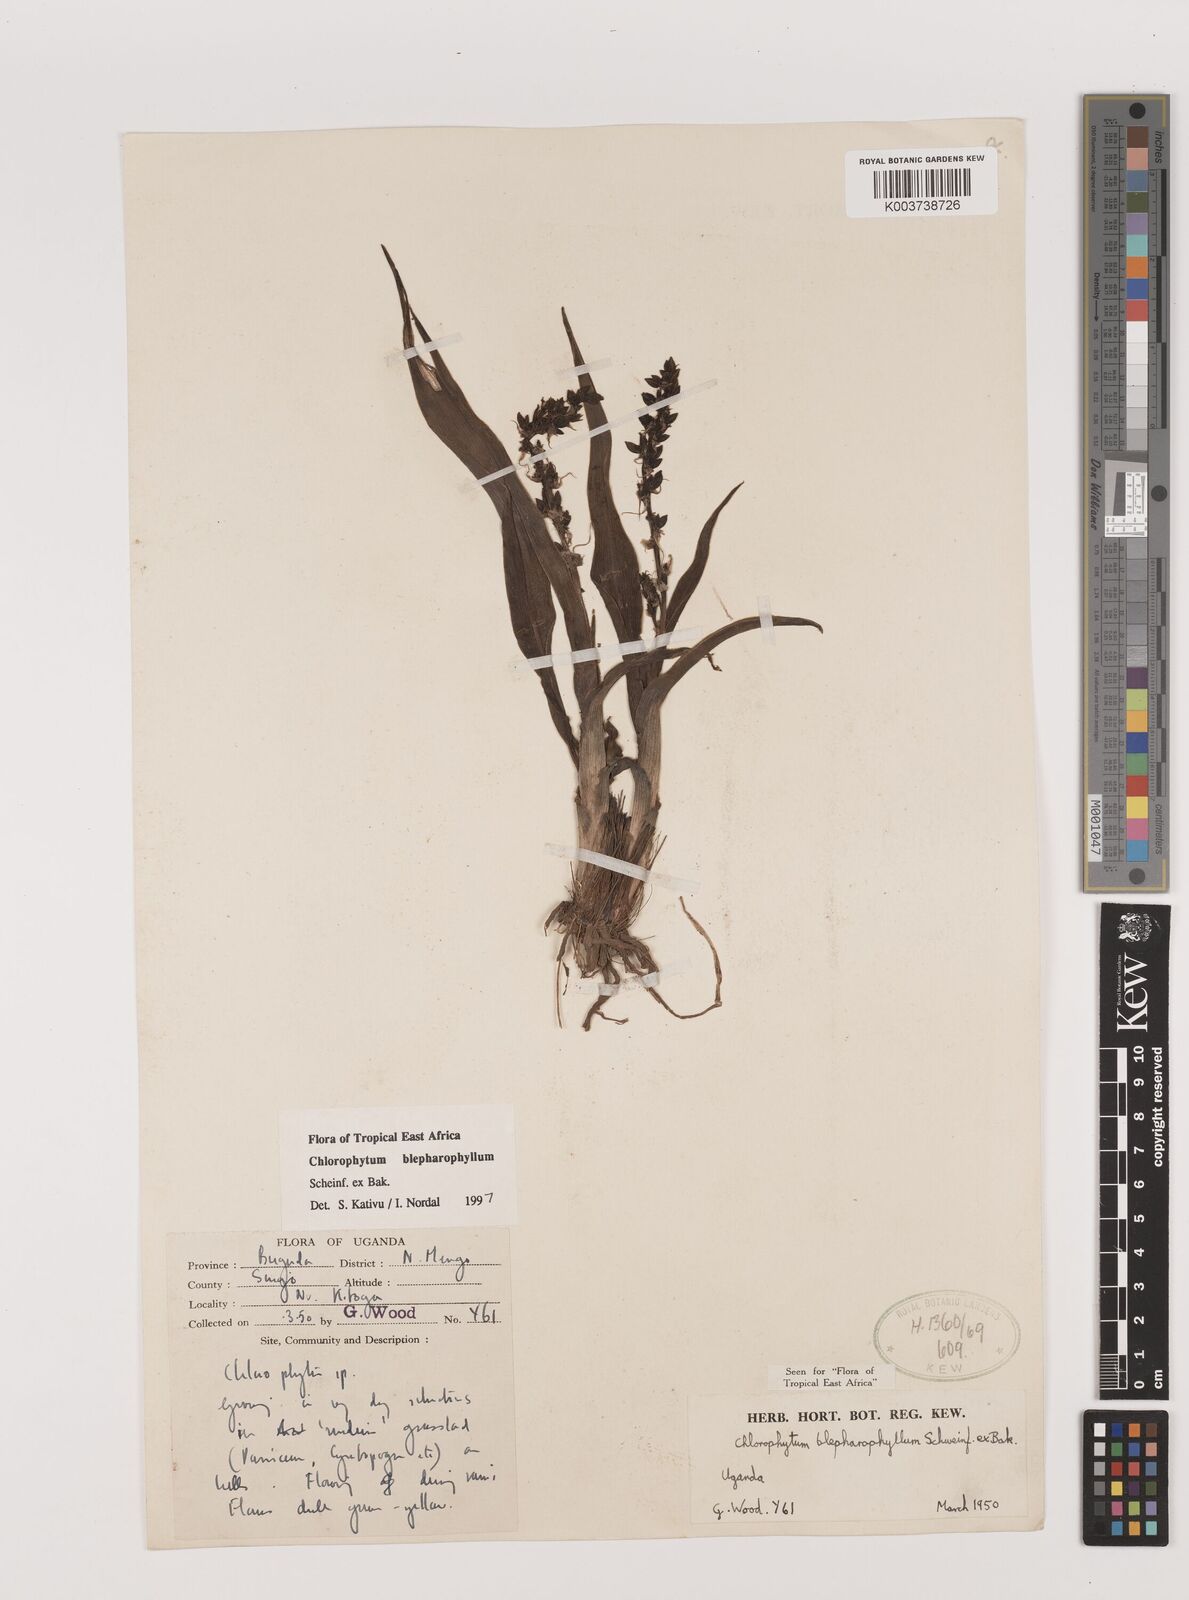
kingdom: Plantae
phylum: Tracheophyta
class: Liliopsida
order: Asparagales
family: Asparagaceae
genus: Chlorophytum
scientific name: Chlorophytum blepharophyllum
